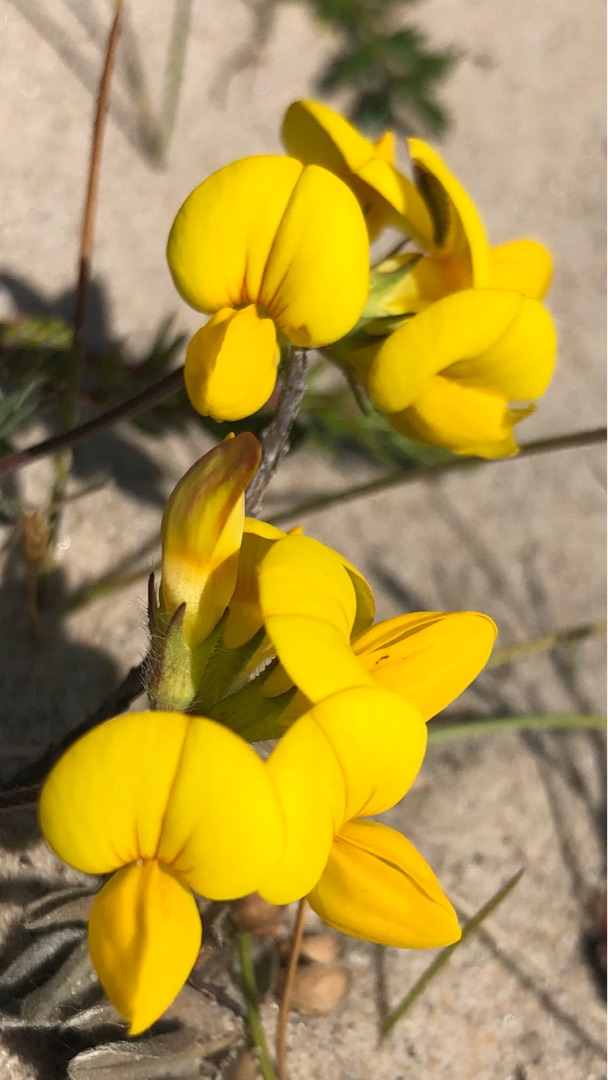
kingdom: Plantae
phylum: Tracheophyta
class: Magnoliopsida
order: Fabales
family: Fabaceae
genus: Lotus
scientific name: Lotus corniculatus
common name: Almindelig kællingetand
